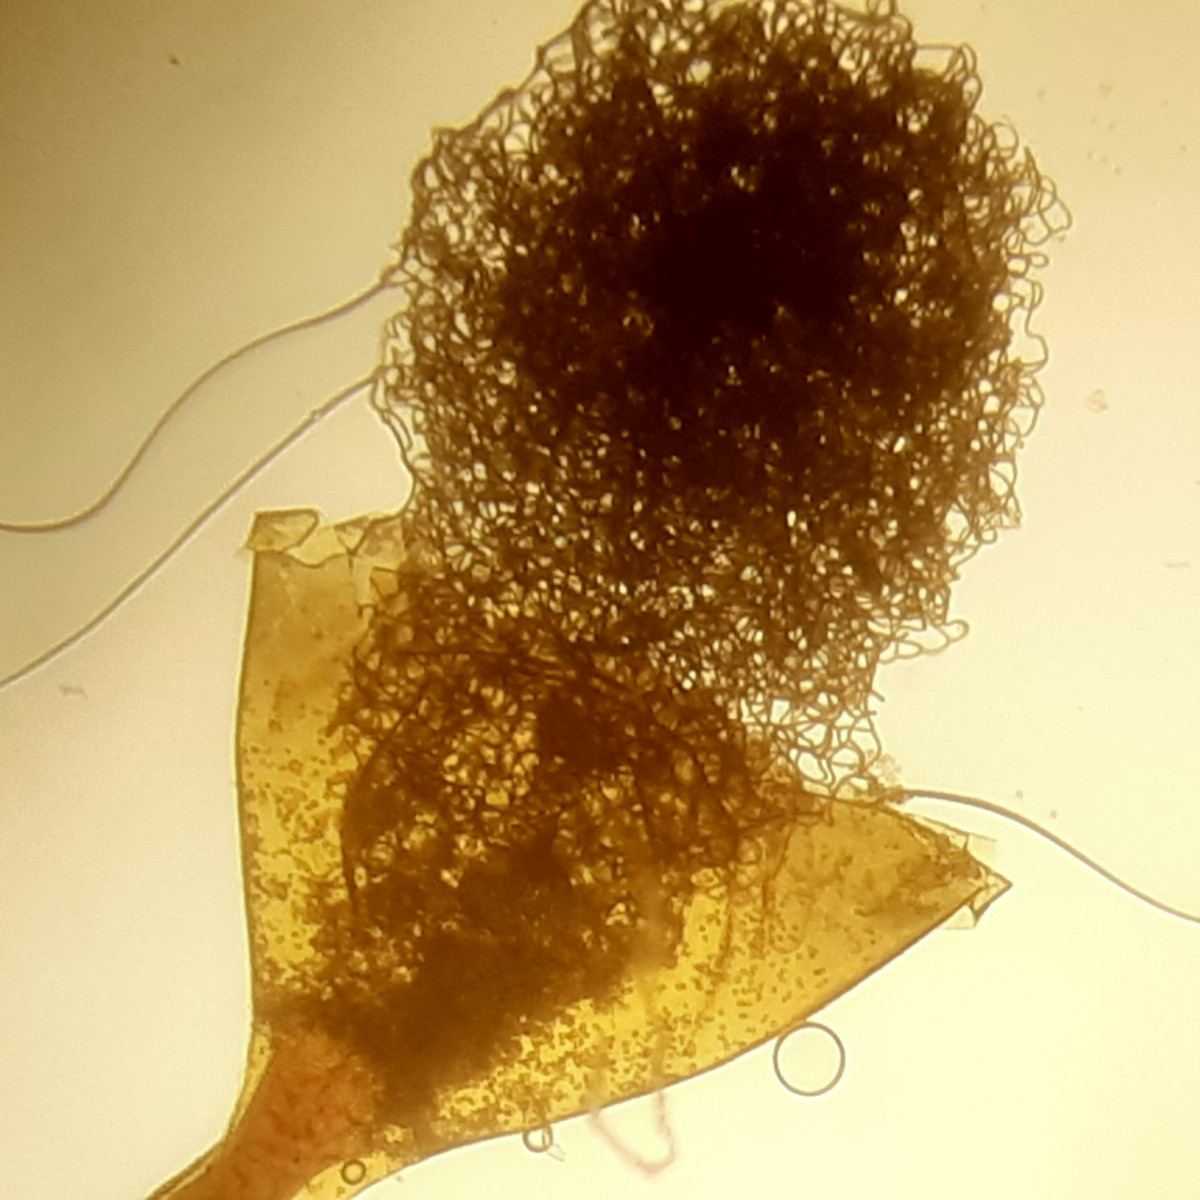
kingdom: Protozoa
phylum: Mycetozoa
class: Myxomycetes
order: Trichiales
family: Arcyriaceae
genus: Hemitrichia
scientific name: Hemitrichia clavata
